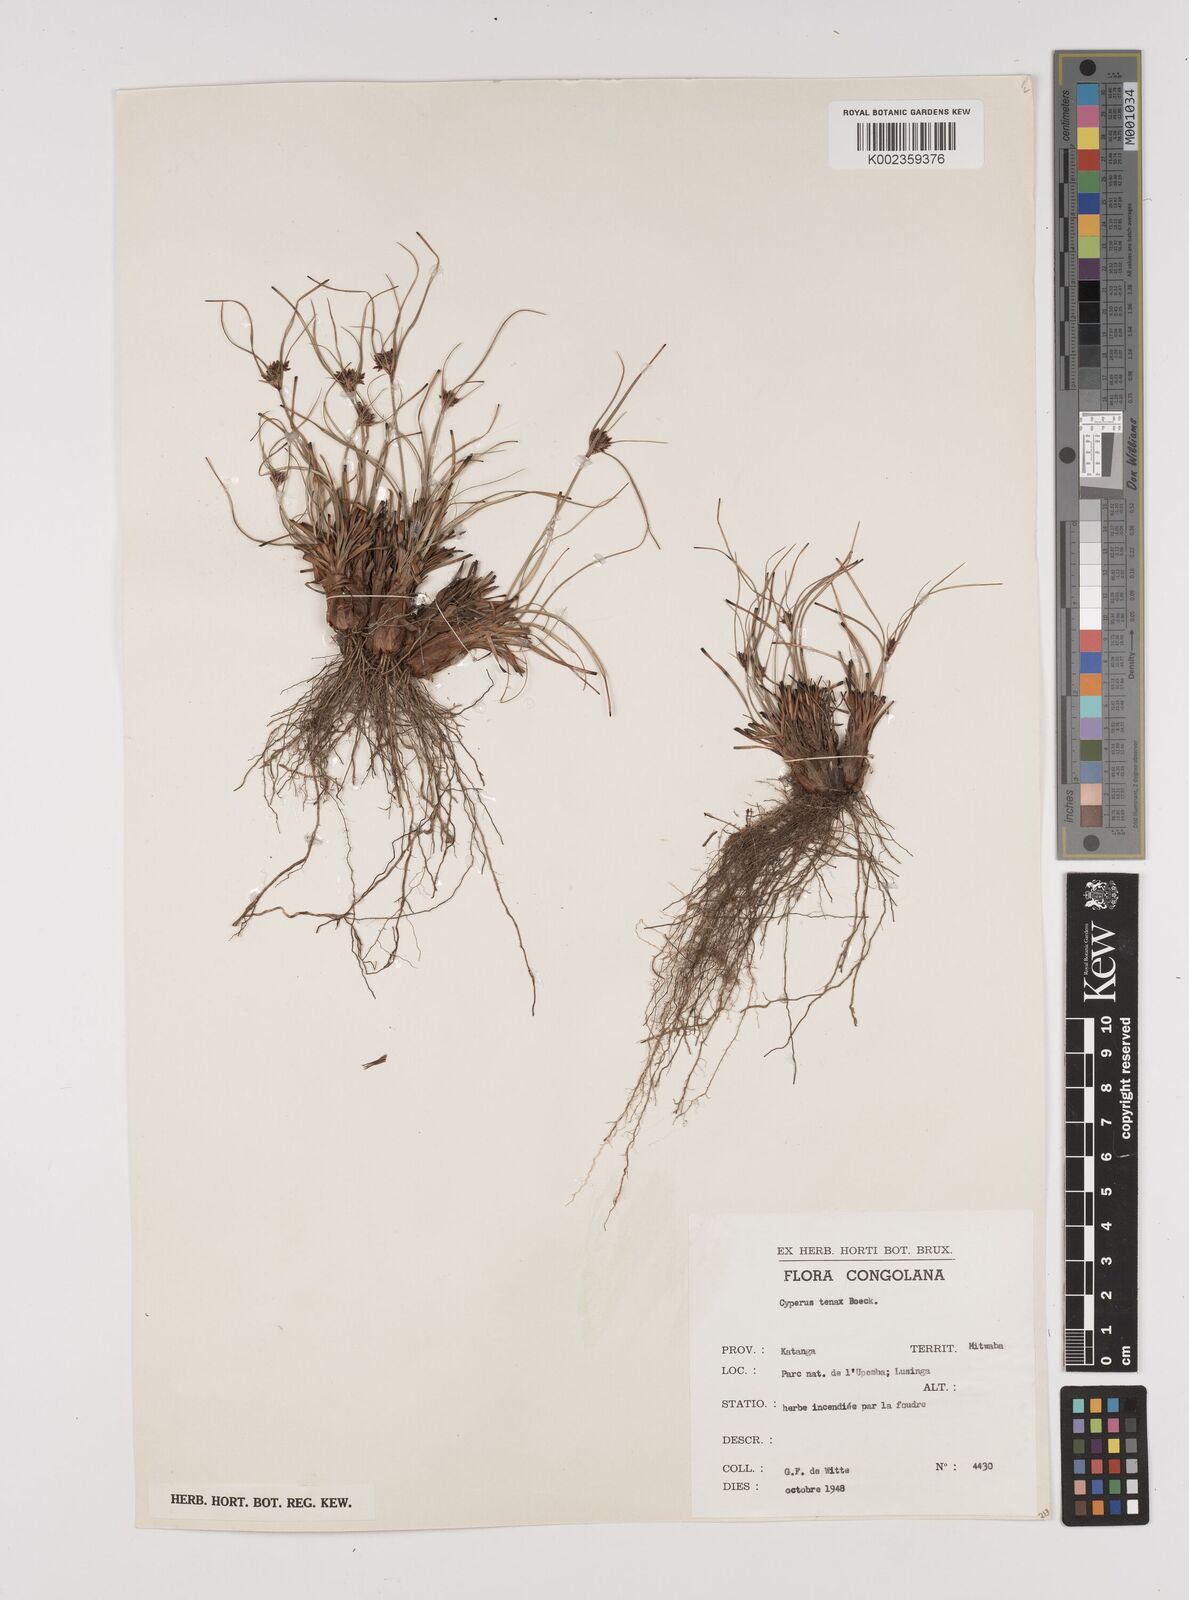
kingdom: Plantae
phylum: Tracheophyta
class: Liliopsida
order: Poales
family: Cyperaceae
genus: Cyperus
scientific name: Cyperus tenax
